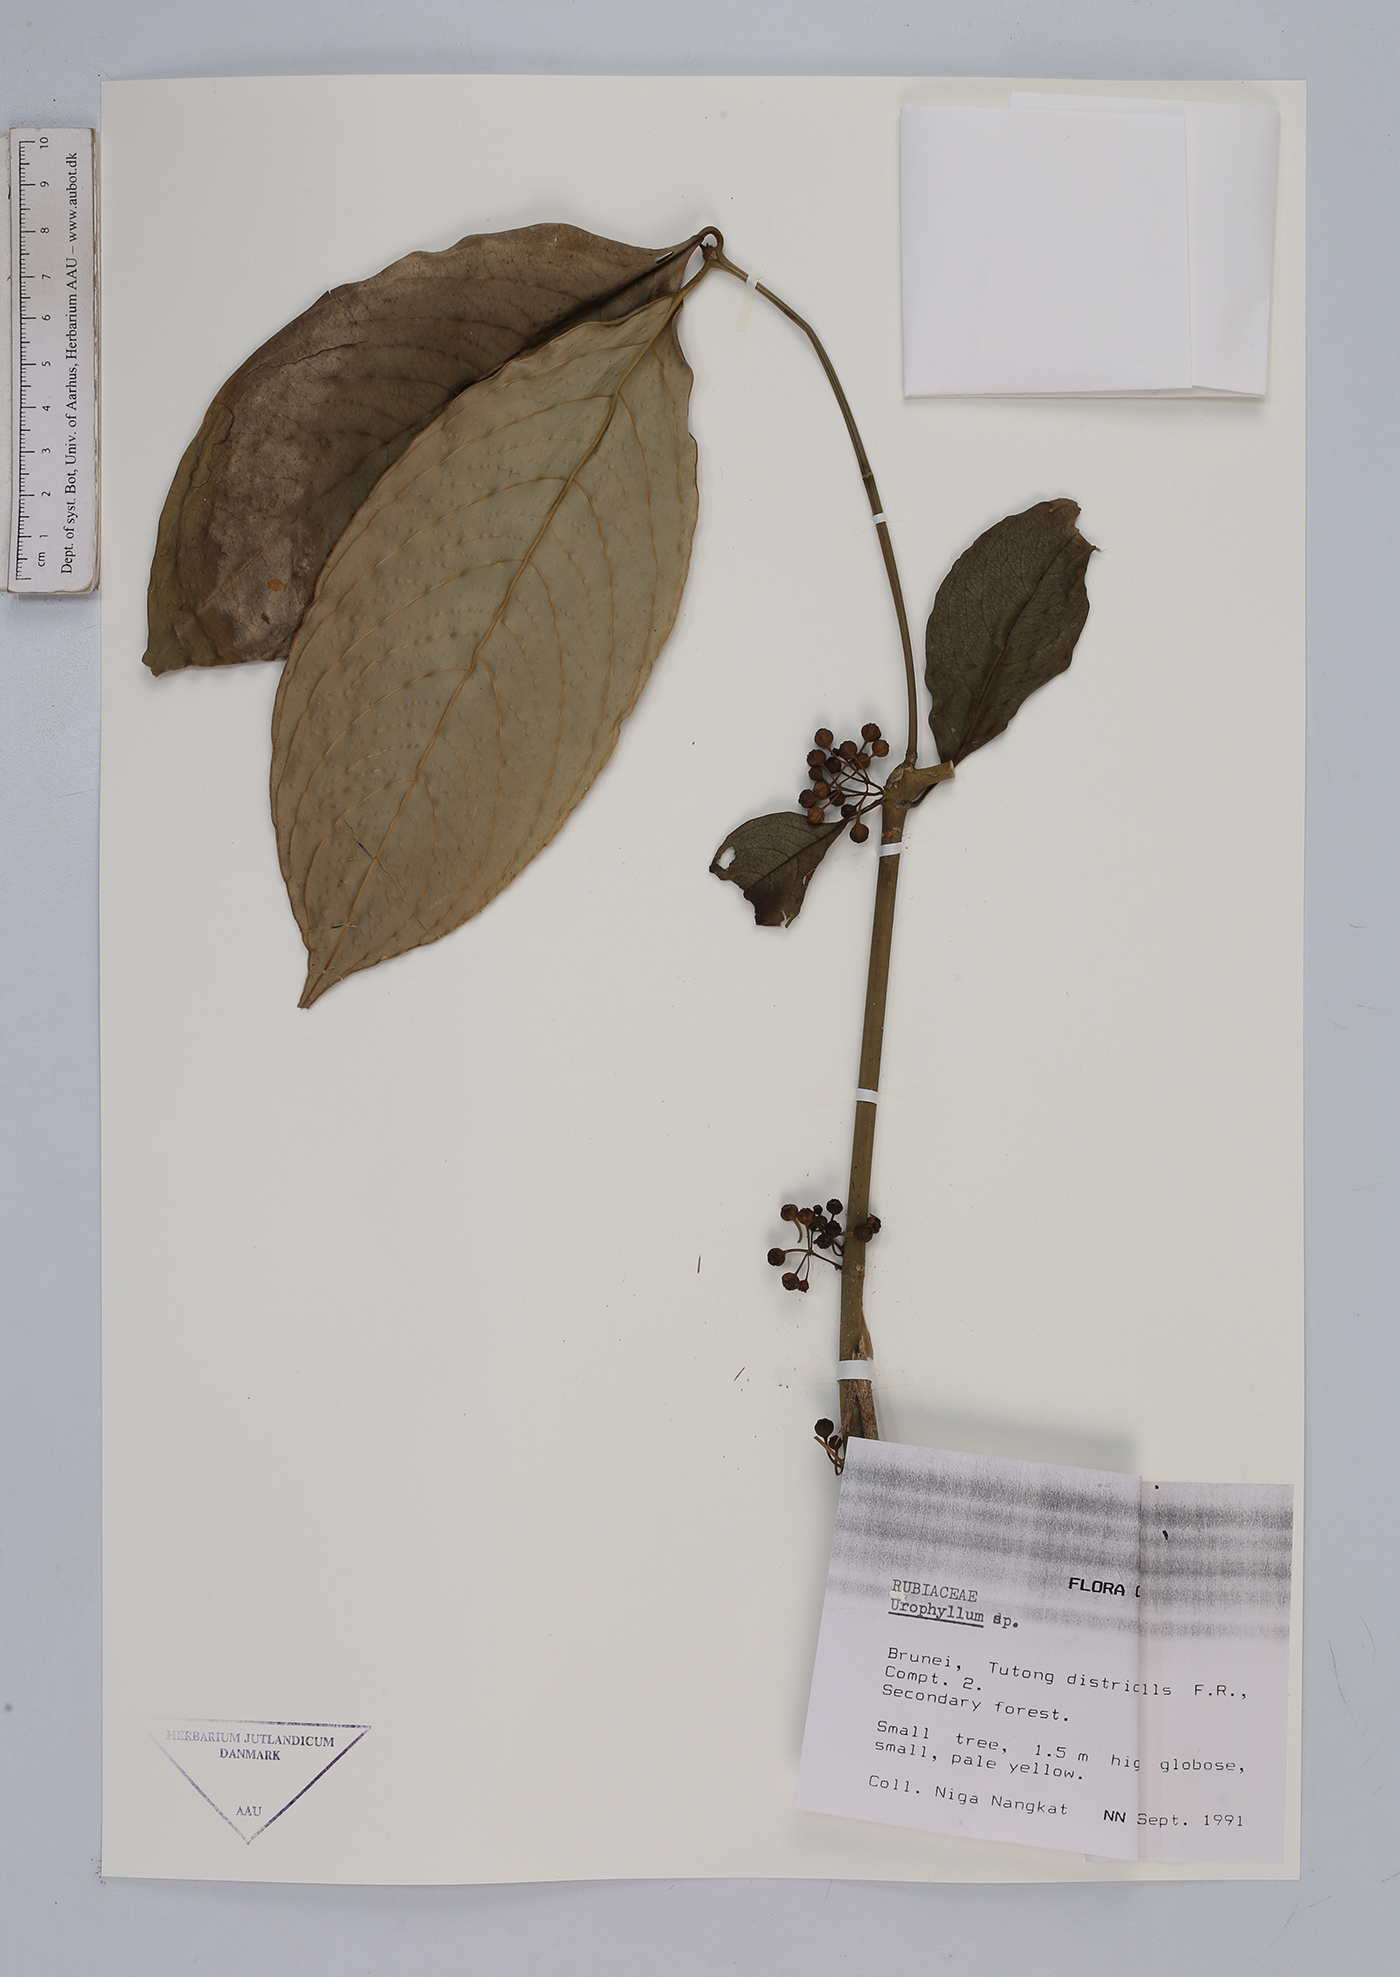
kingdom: Plantae
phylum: Tracheophyta
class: Magnoliopsida
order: Gentianales
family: Rubiaceae
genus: Urophyllum
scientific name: Urophyllum
